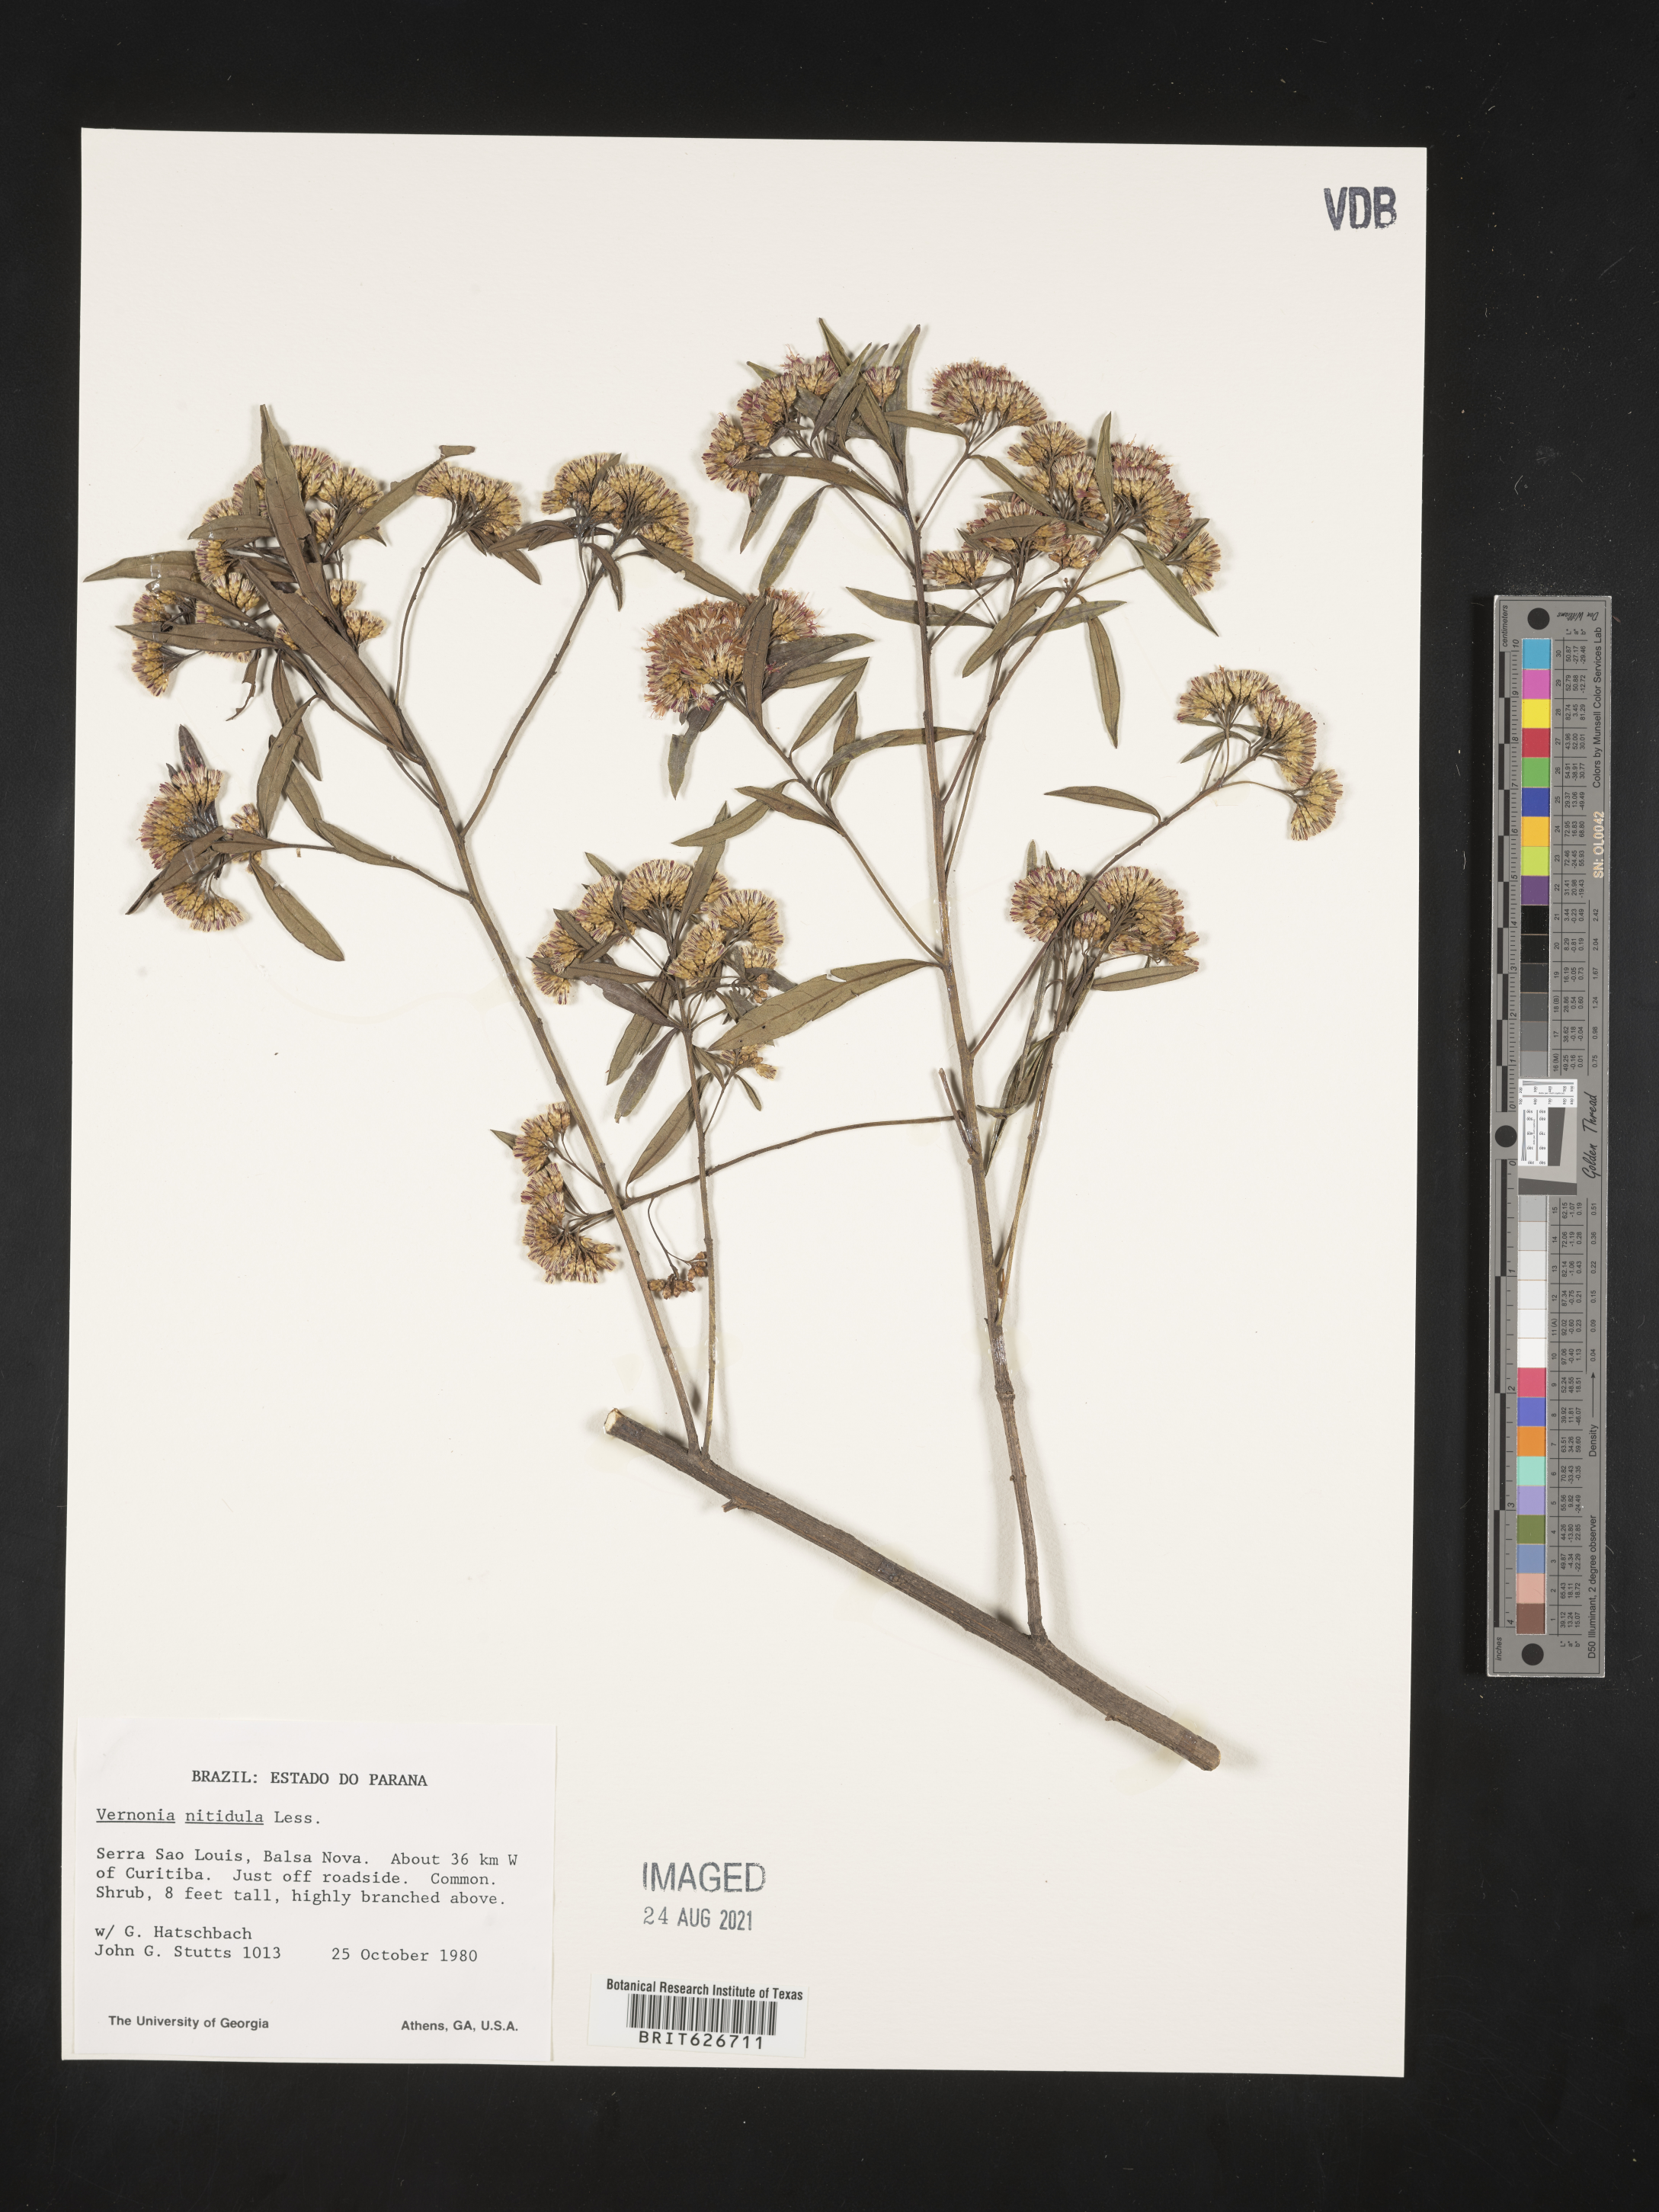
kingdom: Plantae
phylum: Tracheophyta
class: Magnoliopsida
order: Asterales
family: Asteraceae
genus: Vernonanthura
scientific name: Vernonanthura montevidensis
